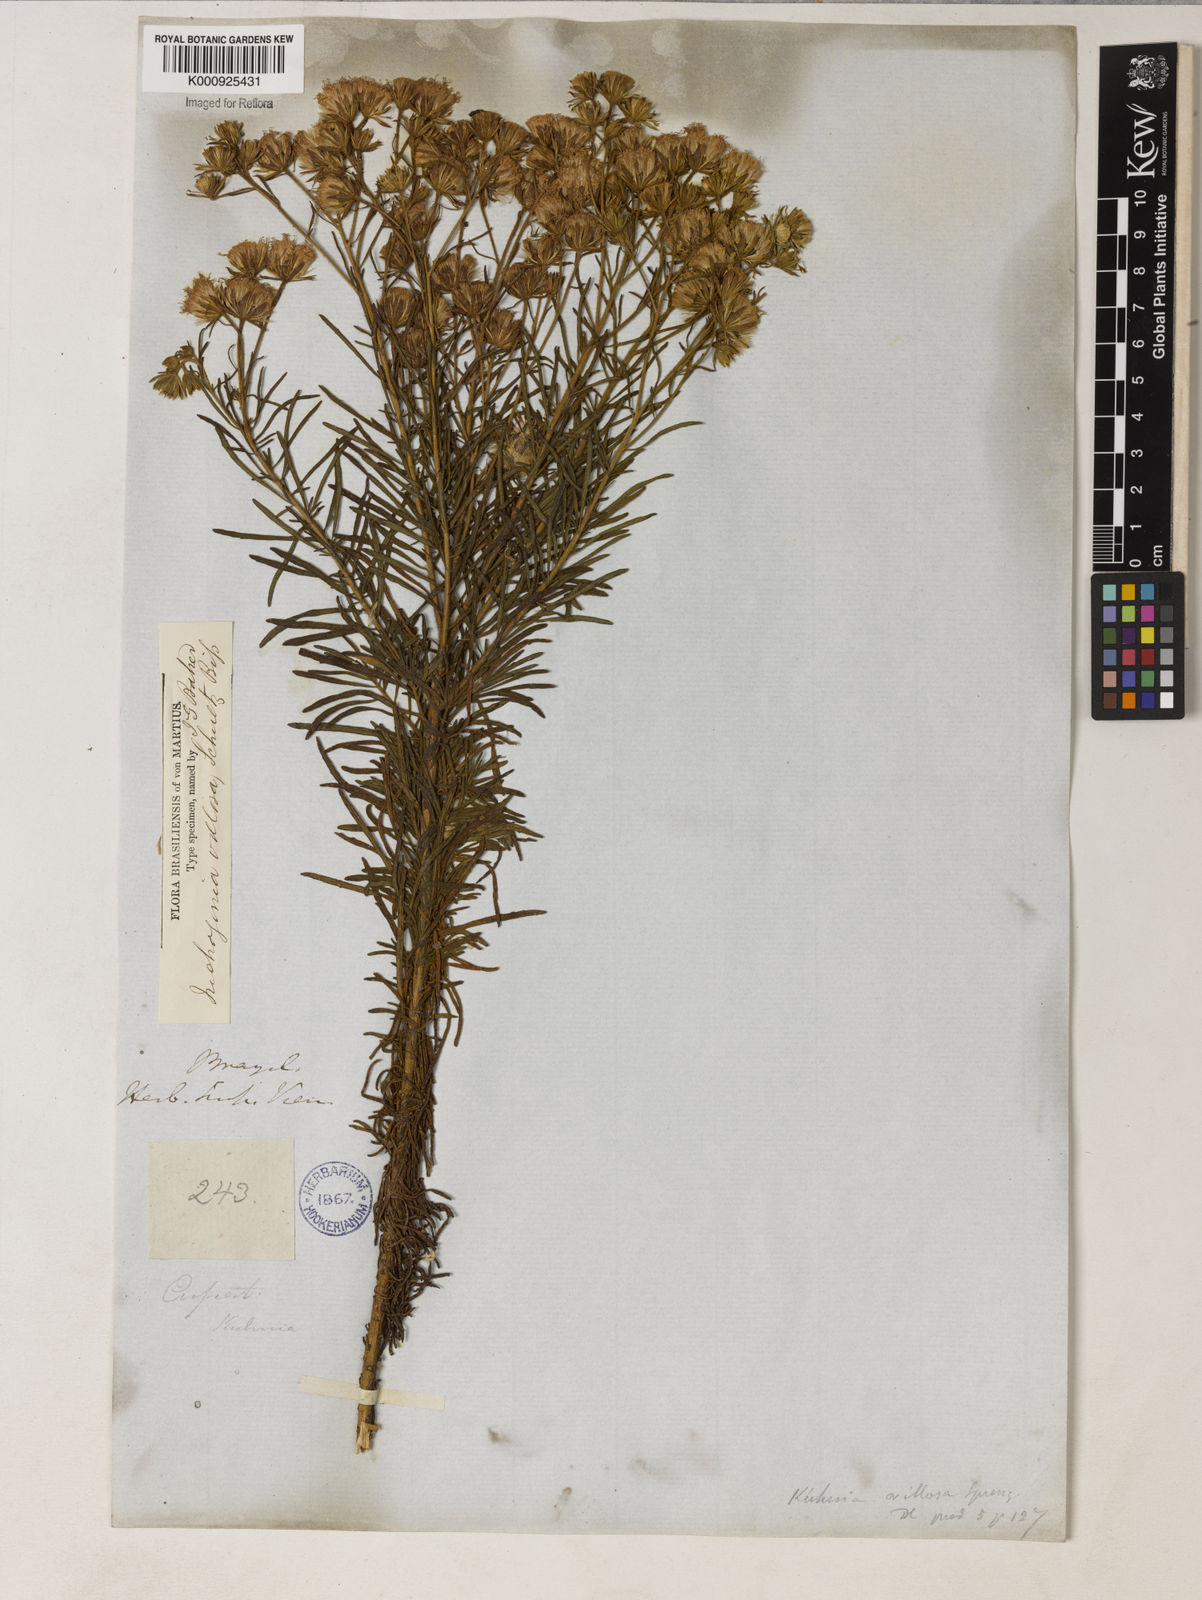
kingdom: Plantae
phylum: Tracheophyta
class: Magnoliopsida
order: Asterales
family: Asteraceae
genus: Trichogonia
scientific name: Trichogonia villosa
